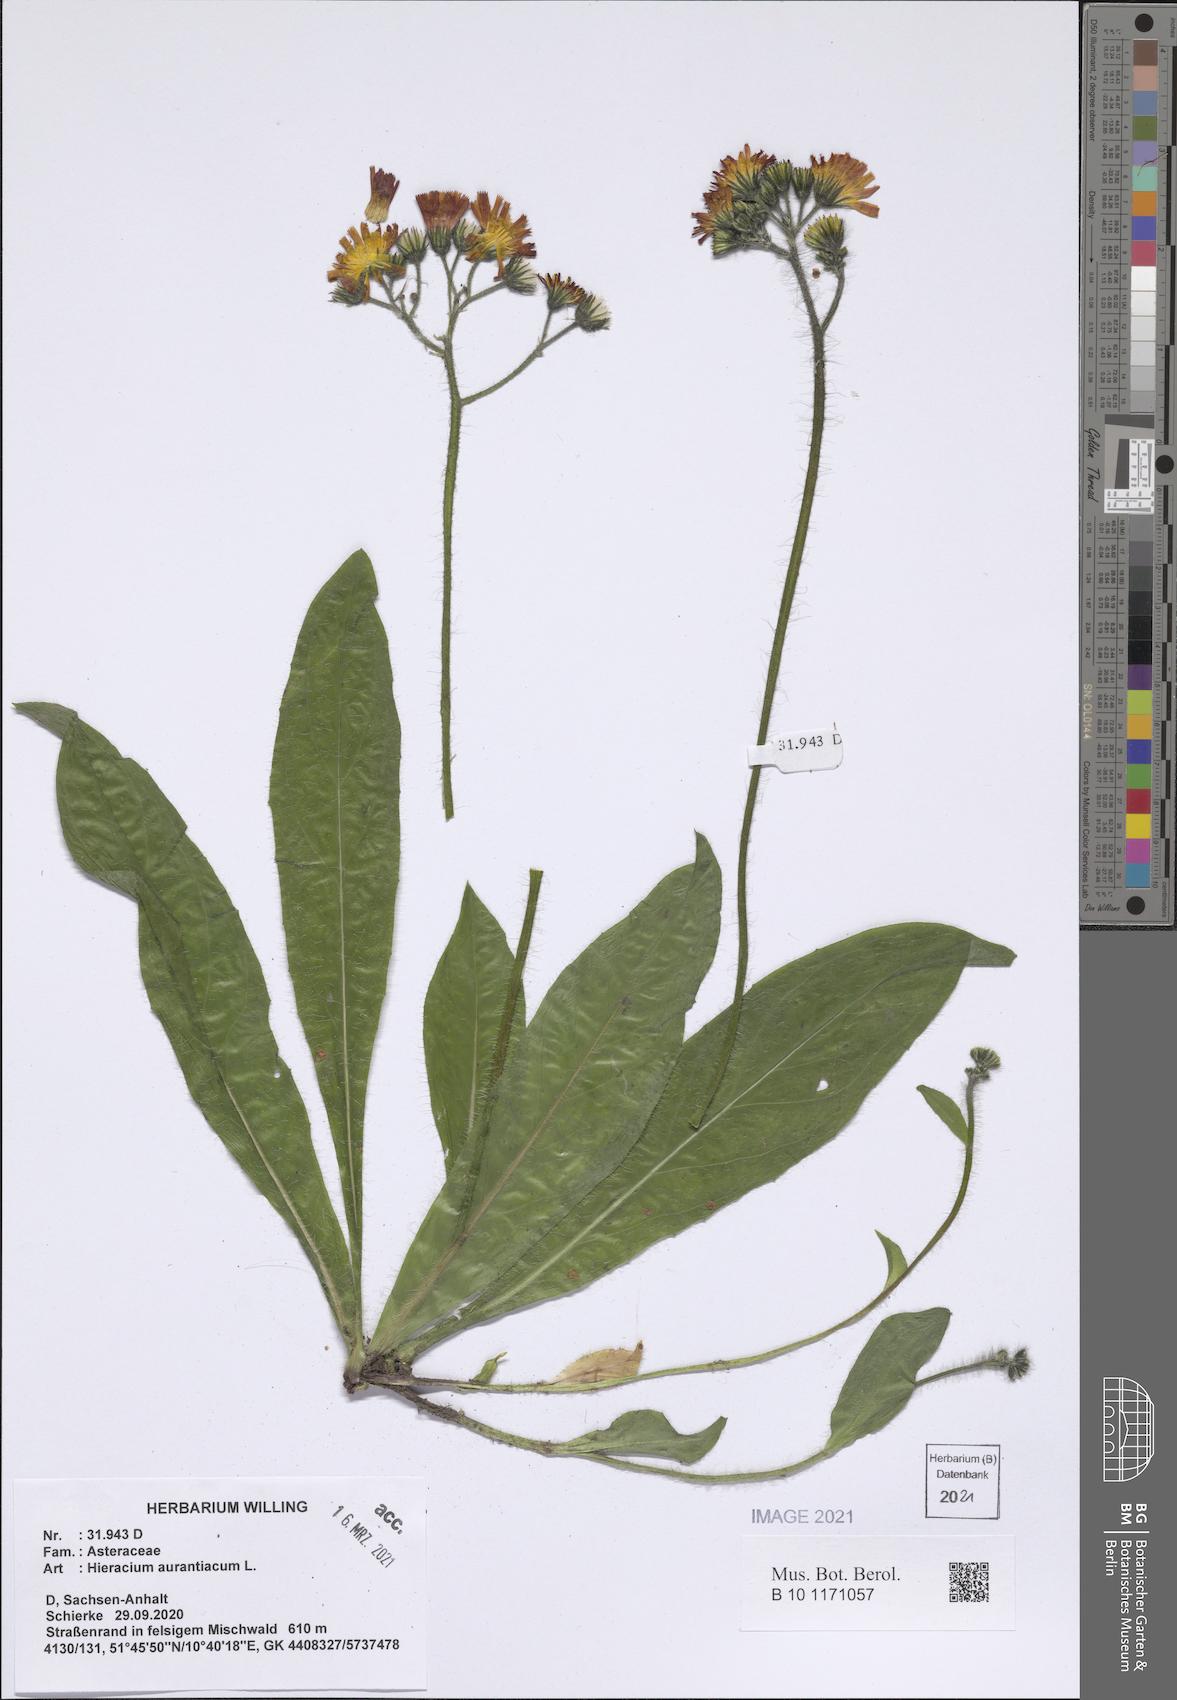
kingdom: Plantae
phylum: Tracheophyta
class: Magnoliopsida
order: Asterales
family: Asteraceae
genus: Pilosella
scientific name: Pilosella aurantiaca
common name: Fox-and-cubs
